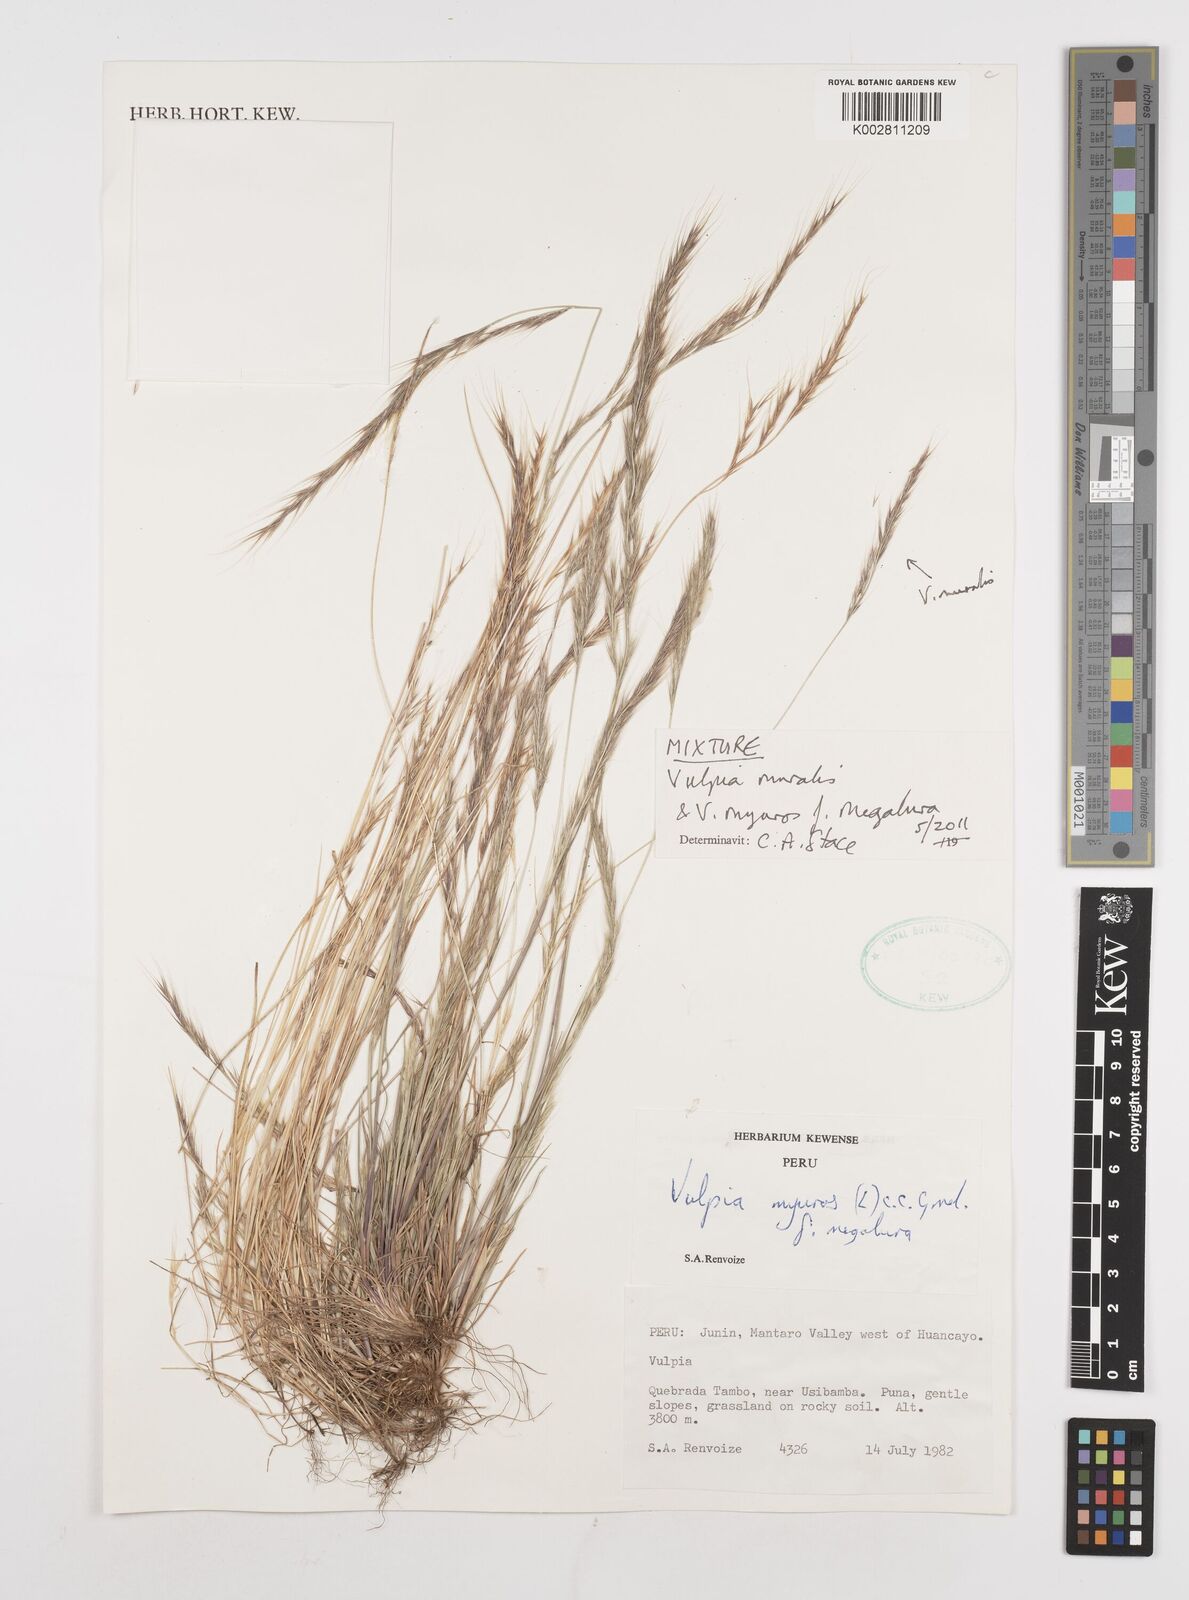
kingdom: Plantae
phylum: Tracheophyta
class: Liliopsida
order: Poales
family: Poaceae
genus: Festuca
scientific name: Festuca
